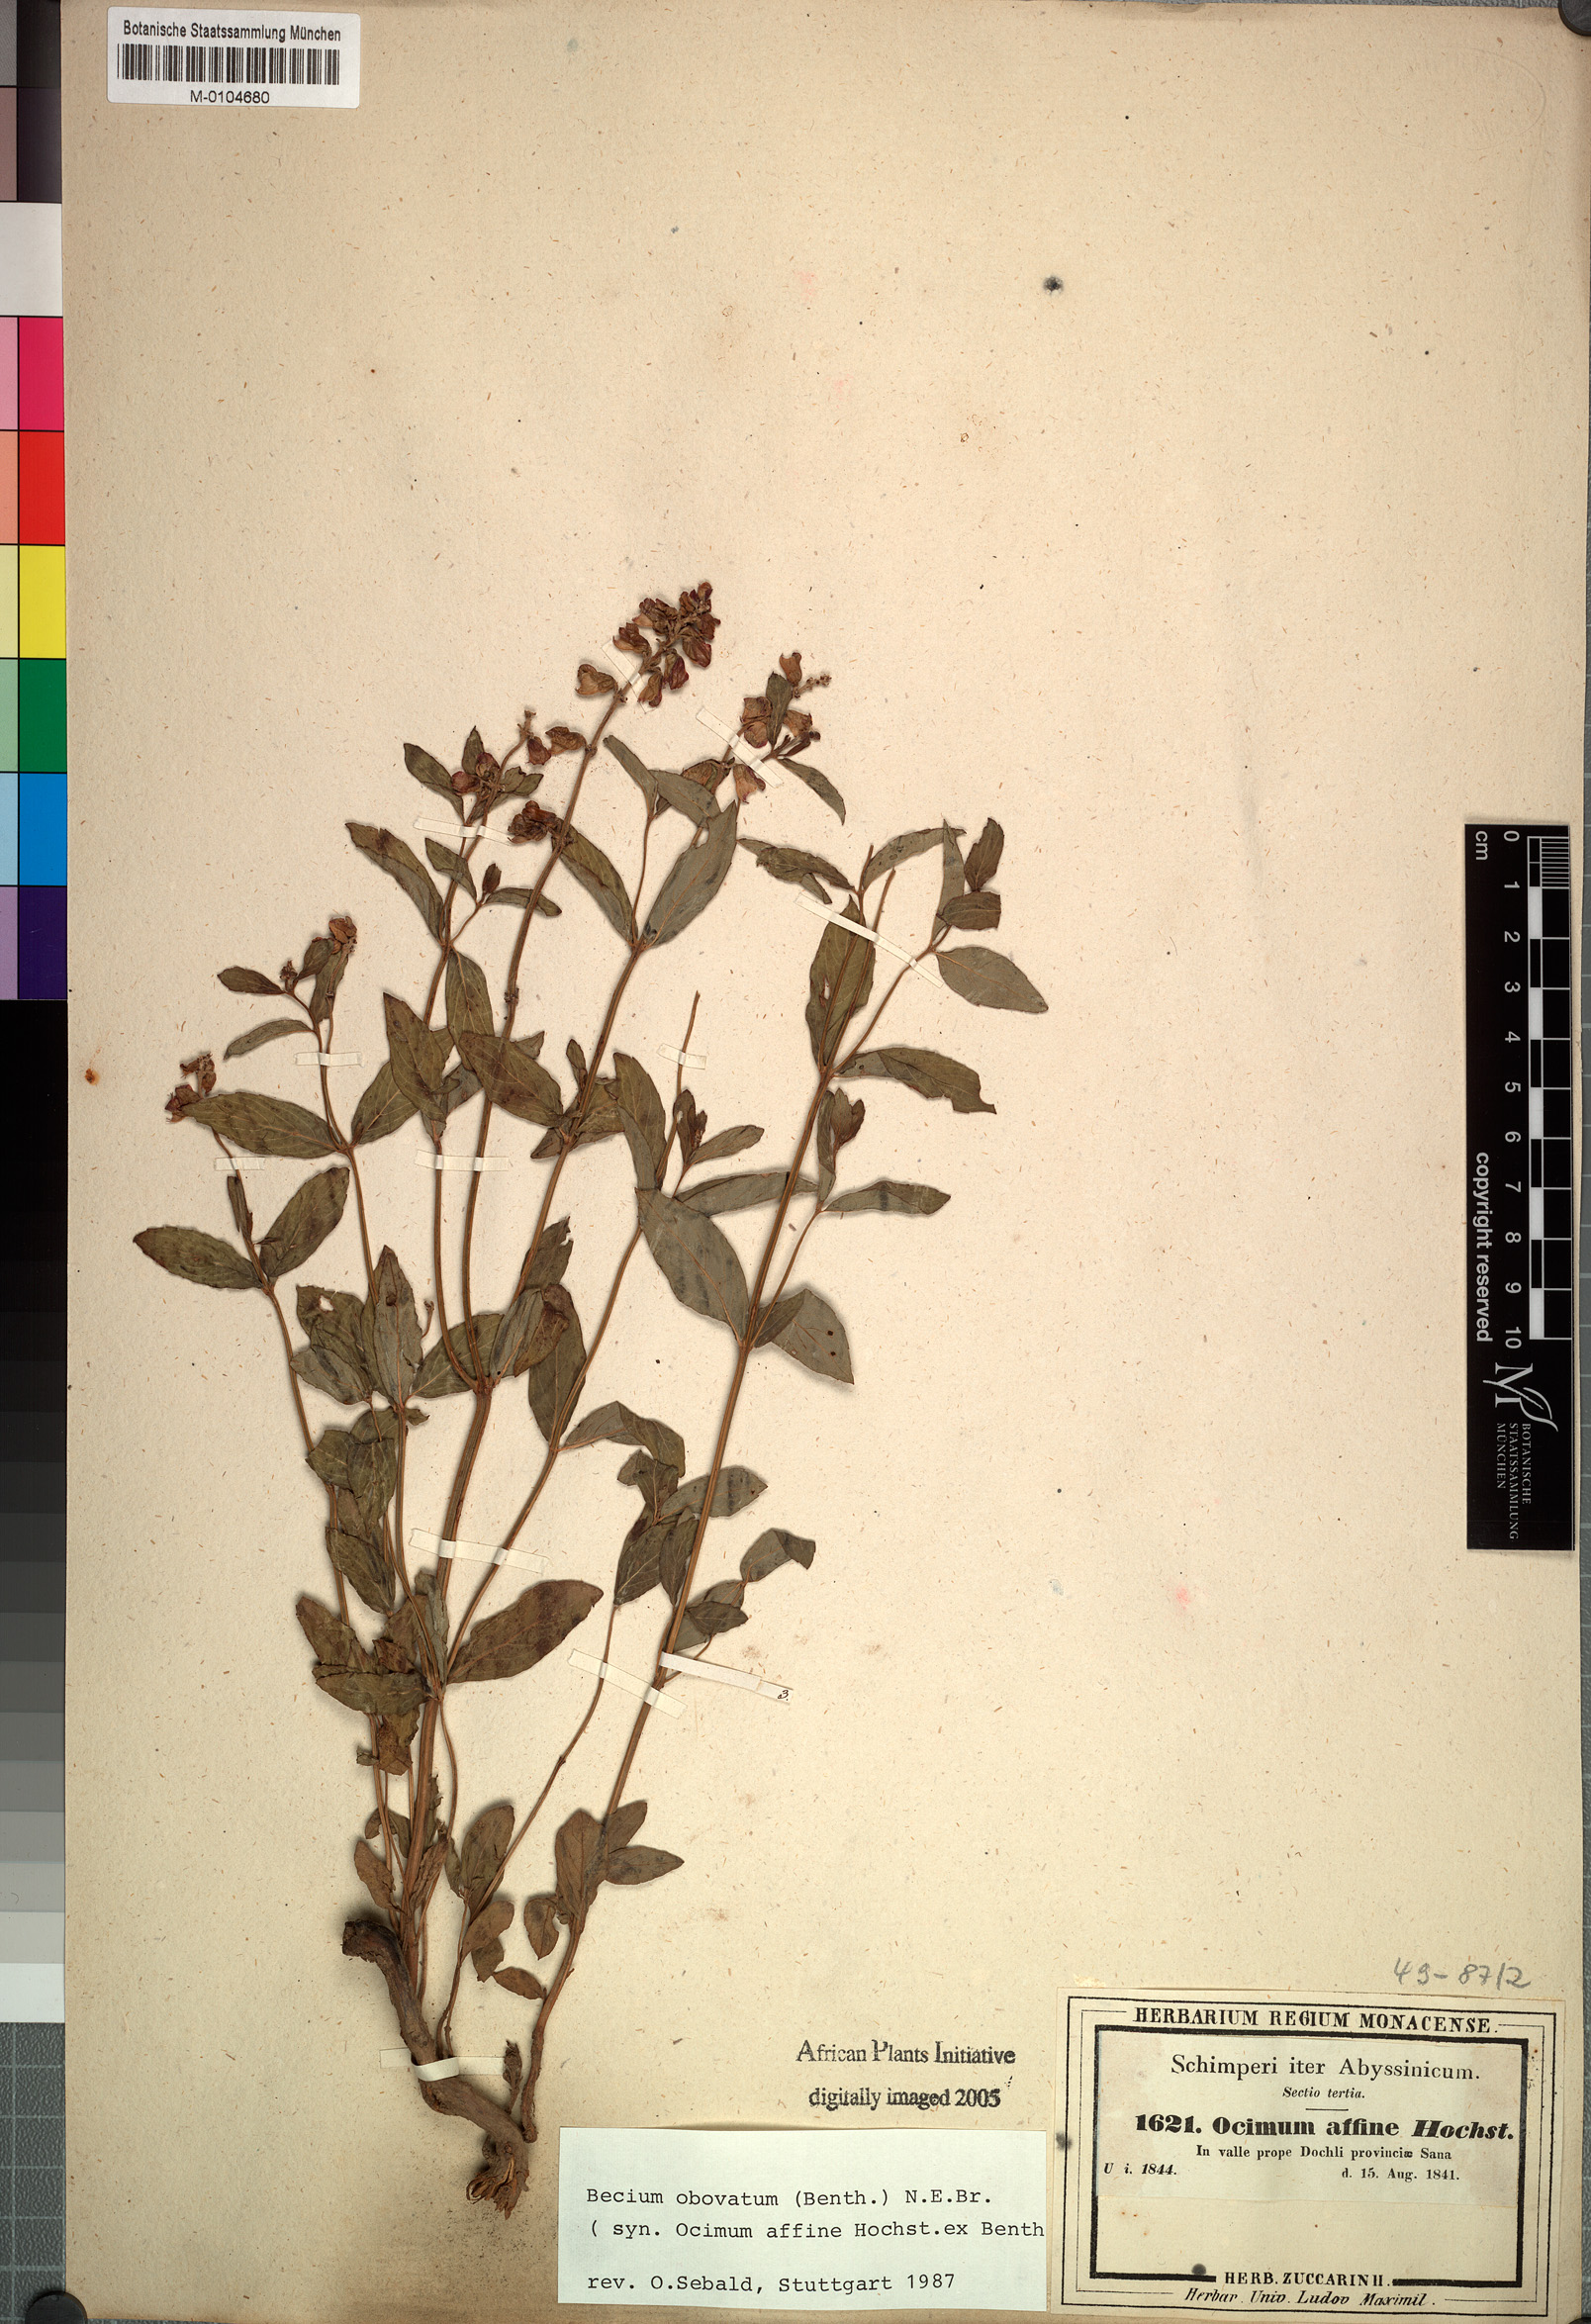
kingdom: Plantae
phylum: Tracheophyta
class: Magnoliopsida
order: Lamiales
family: Lamiaceae
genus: Ocimum
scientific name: Ocimum obovatum
